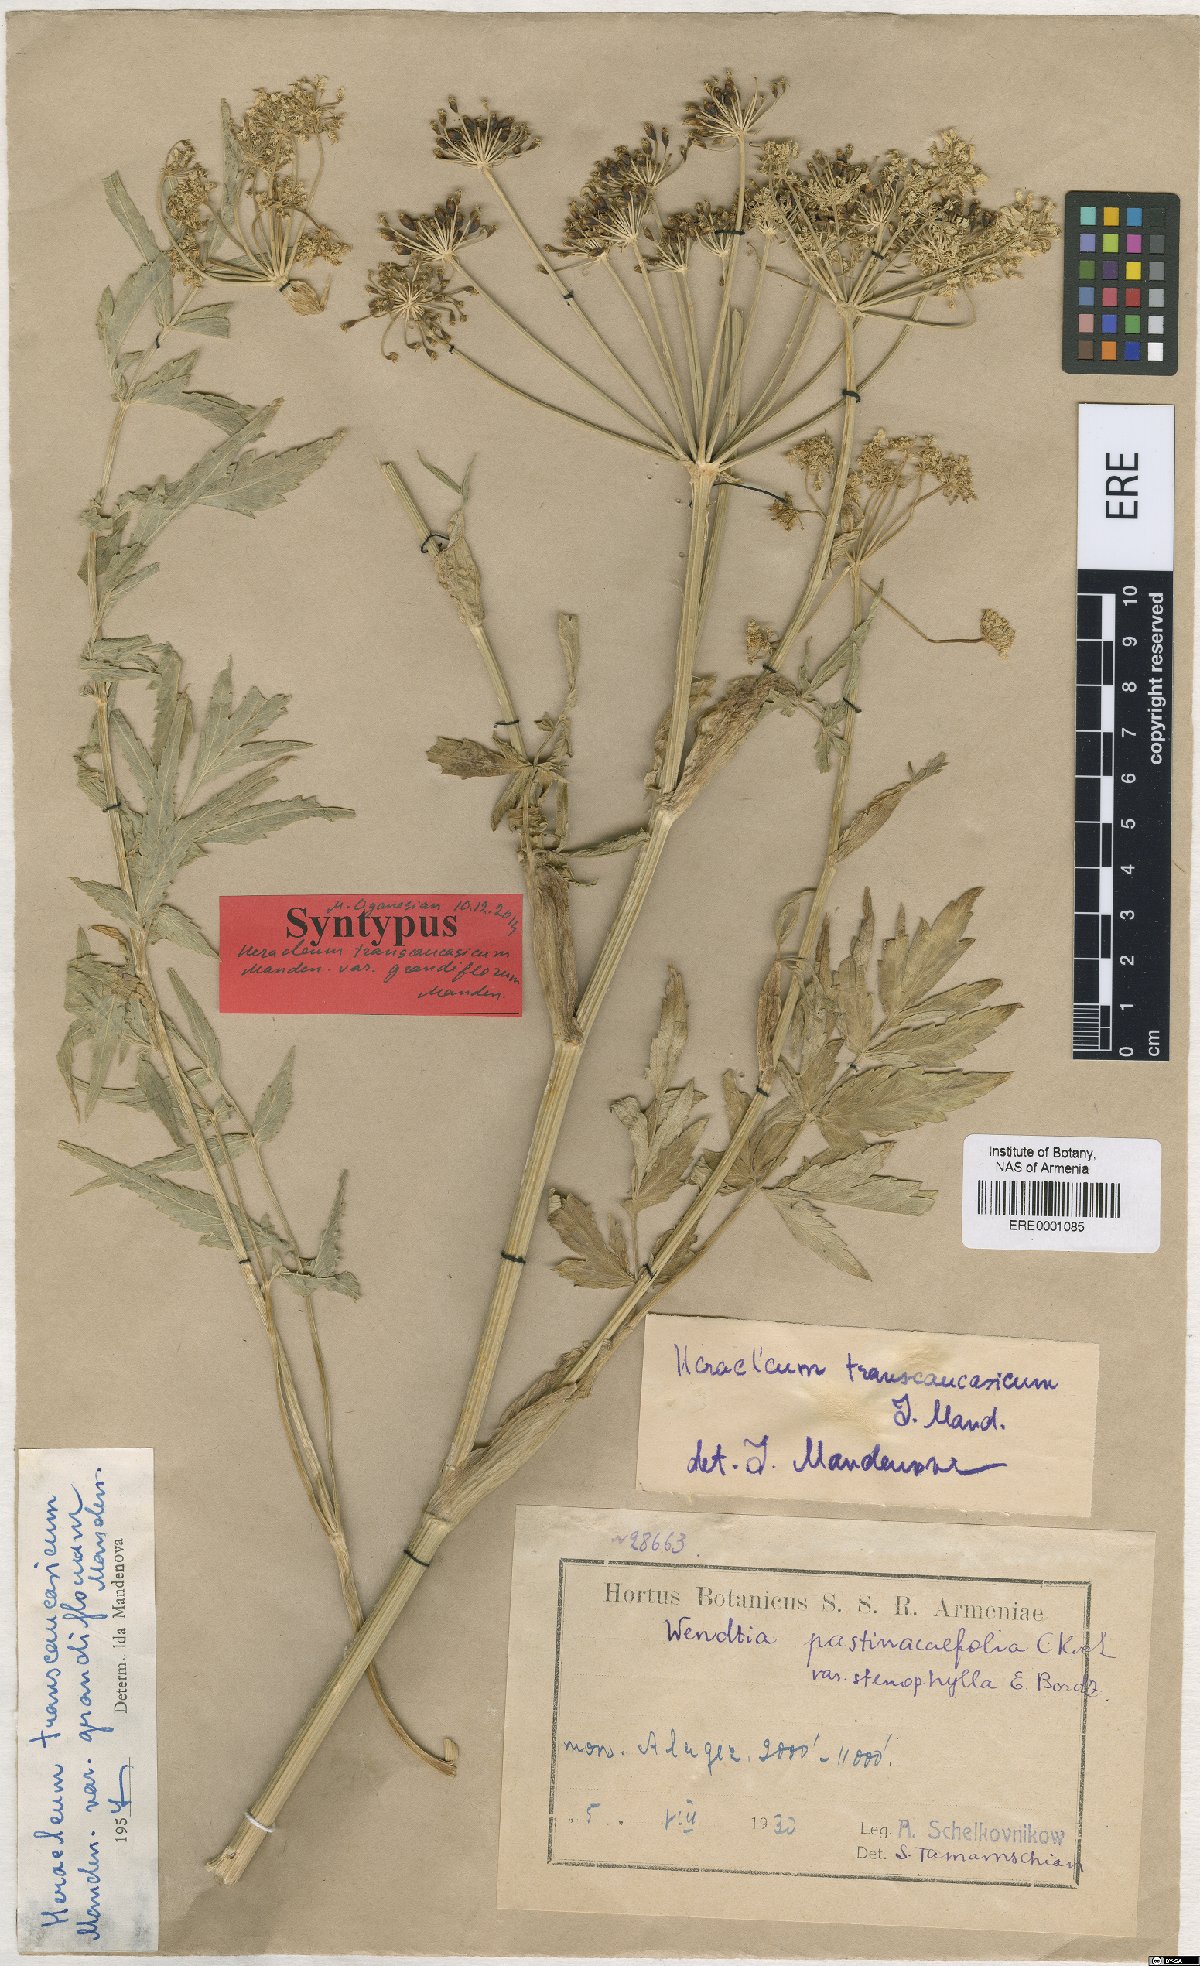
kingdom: Plantae
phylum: Tracheophyta
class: Magnoliopsida
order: Apiales
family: Apiaceae
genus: Heracleum
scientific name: Heracleum pastinacifolium
